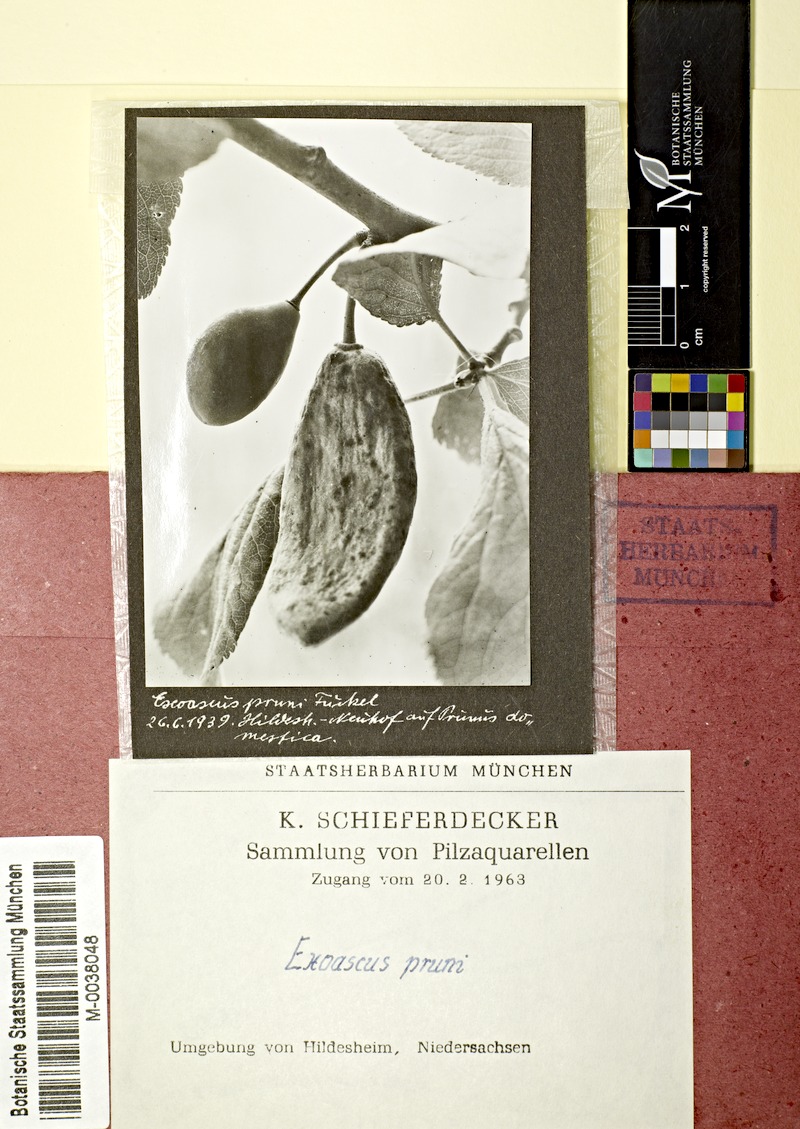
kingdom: Plantae
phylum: Tracheophyta
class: Magnoliopsida
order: Rosales
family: Rosaceae
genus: Prunus
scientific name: Prunus domestica
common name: Wild plum
